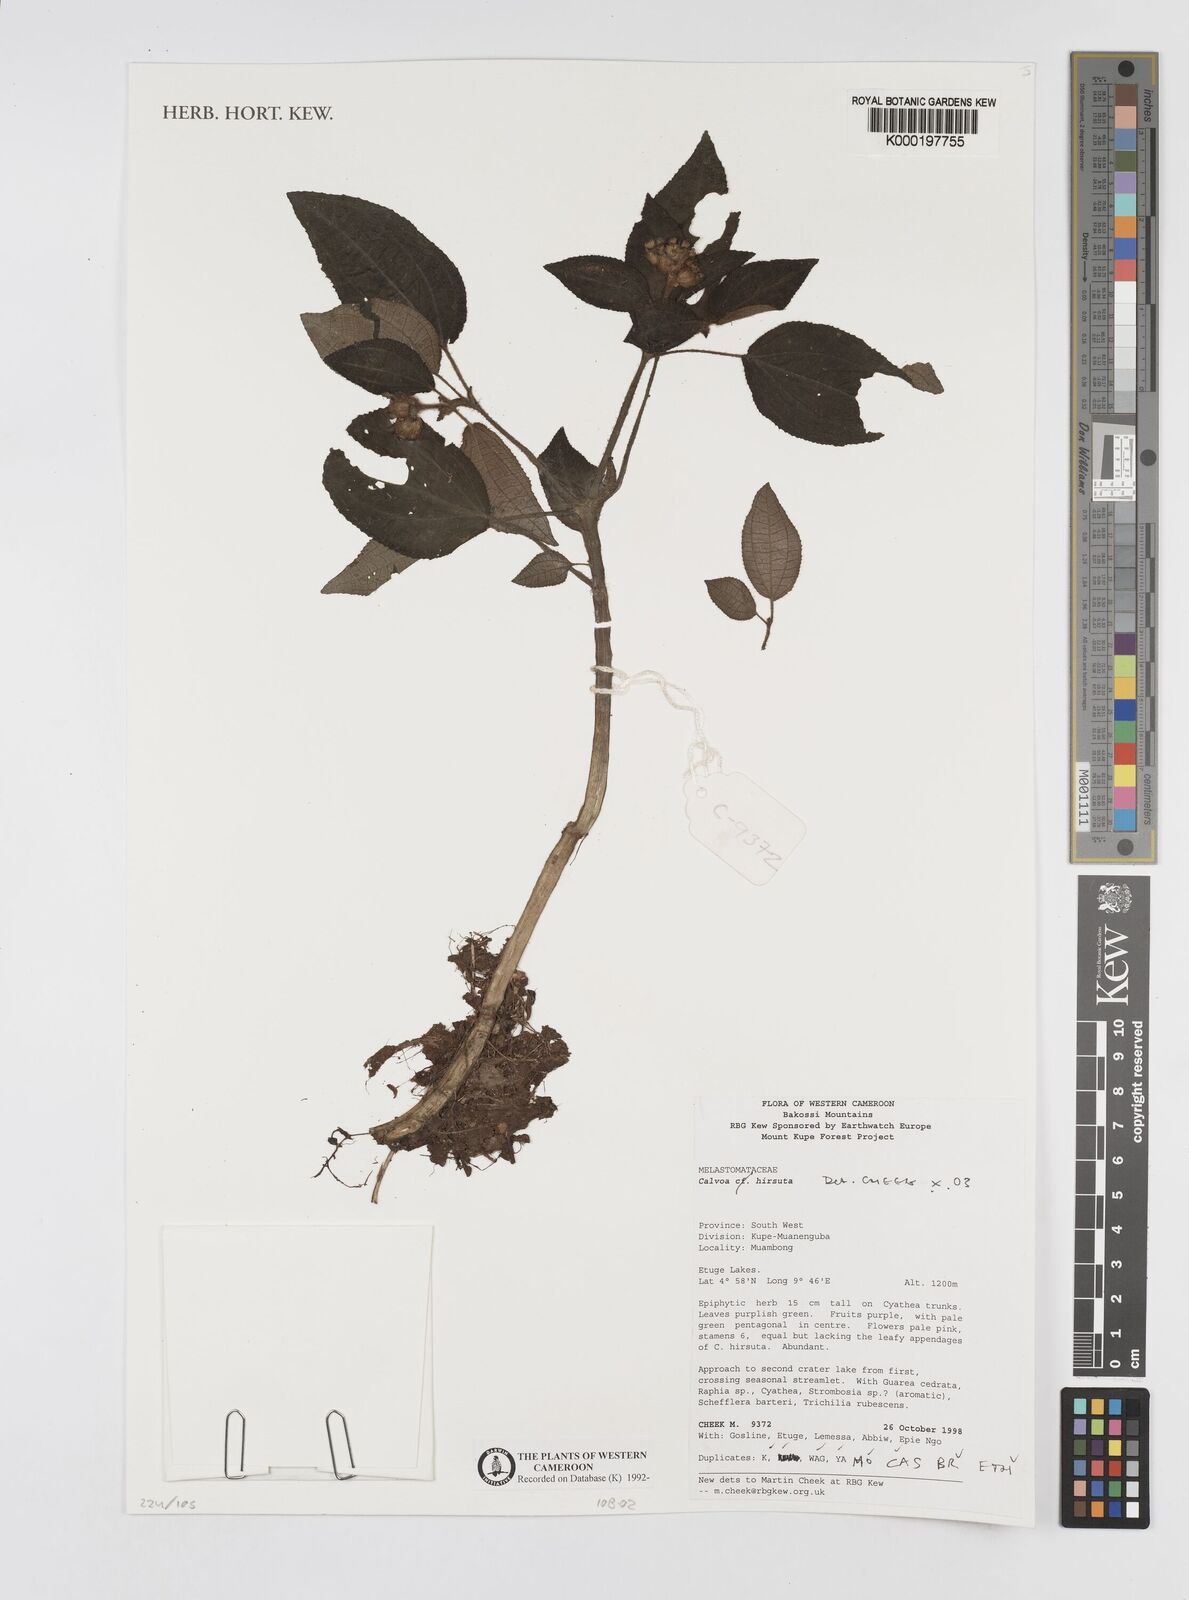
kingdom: Plantae
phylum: Tracheophyta
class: Magnoliopsida
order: Myrtales
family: Melastomataceae
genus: Calvoa
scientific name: Calvoa
